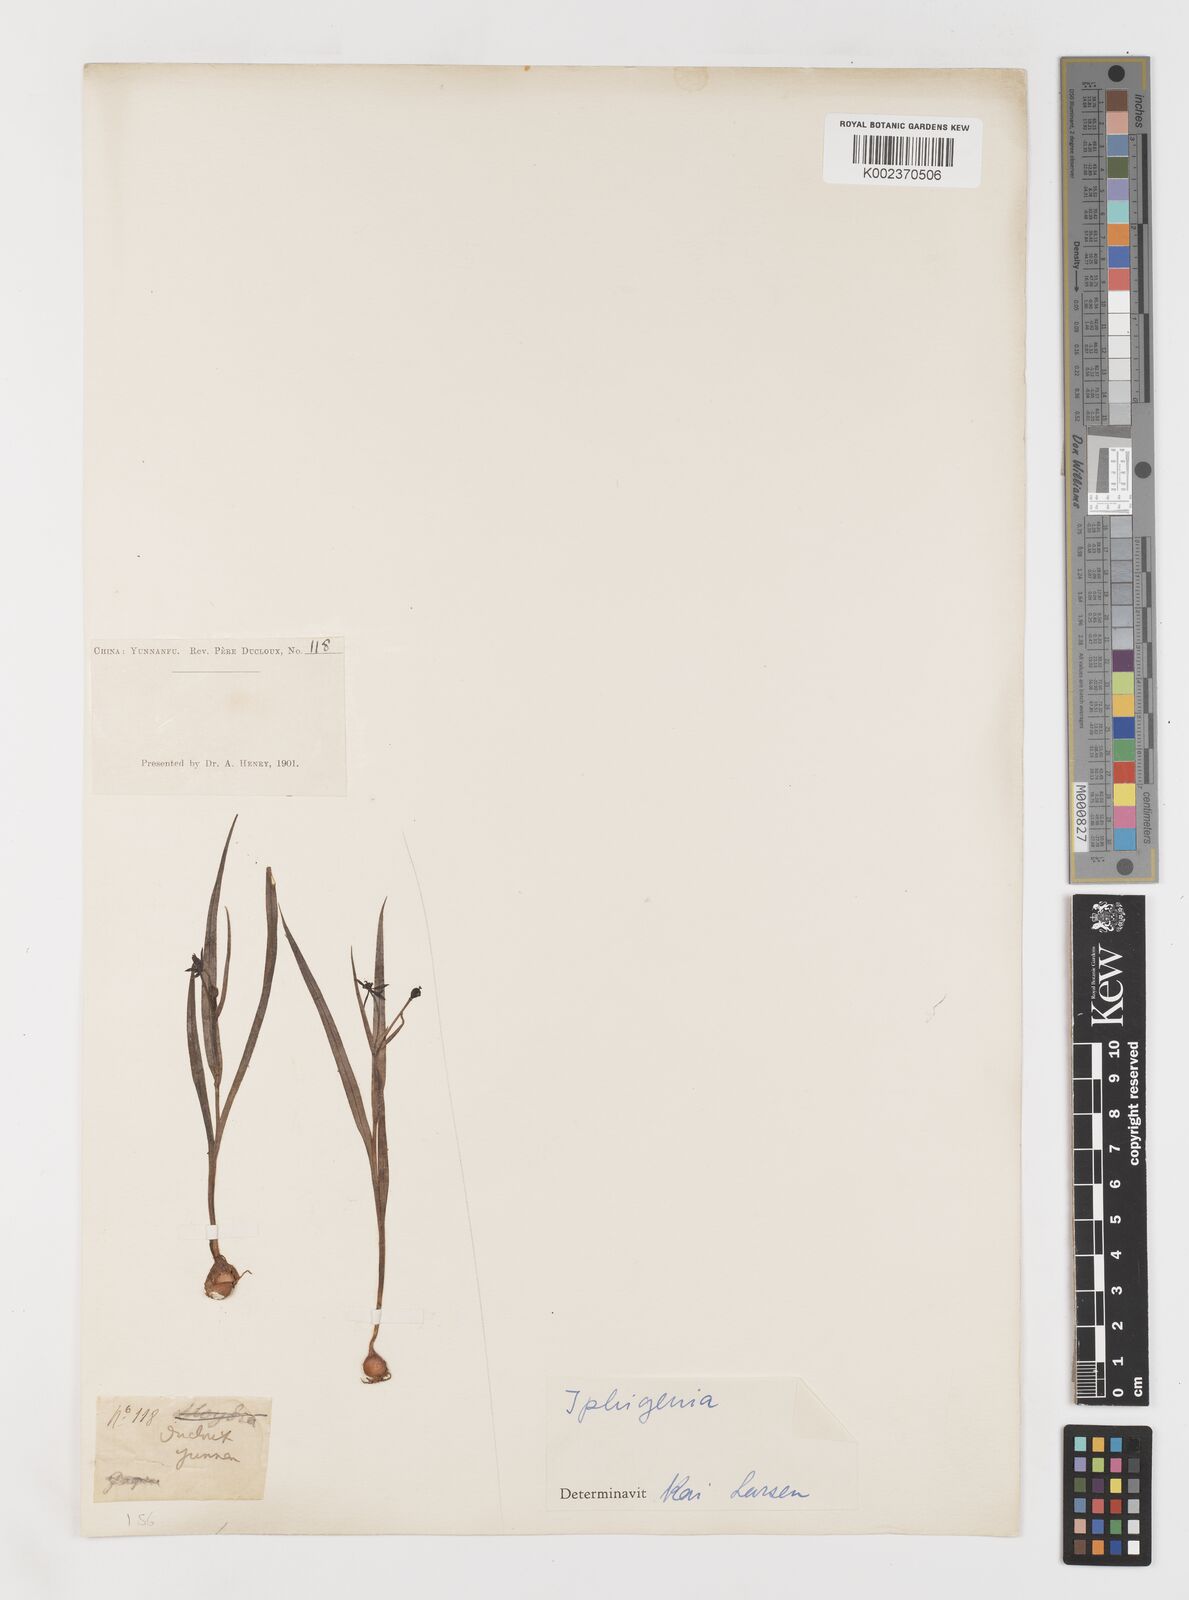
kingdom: Plantae
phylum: Tracheophyta
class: Liliopsida
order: Liliales
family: Colchicaceae
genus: Iphigenia
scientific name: Iphigenia indica
